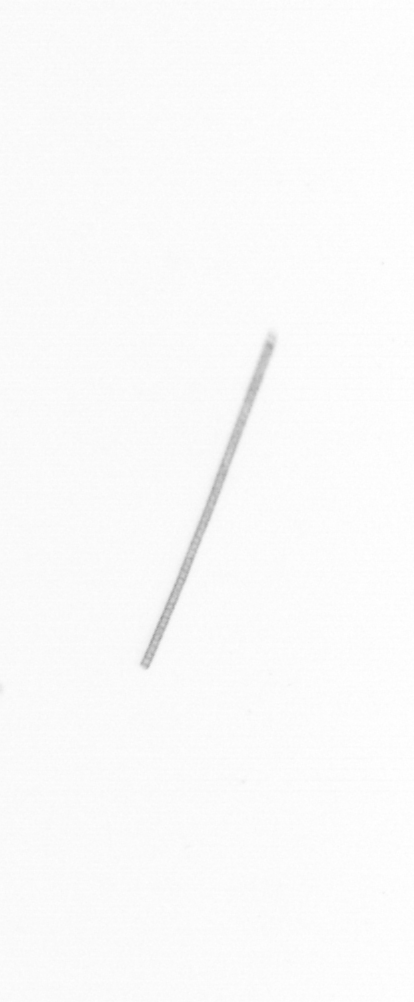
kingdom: Chromista
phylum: Ochrophyta
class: Bacillariophyceae
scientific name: Bacillariophyceae
